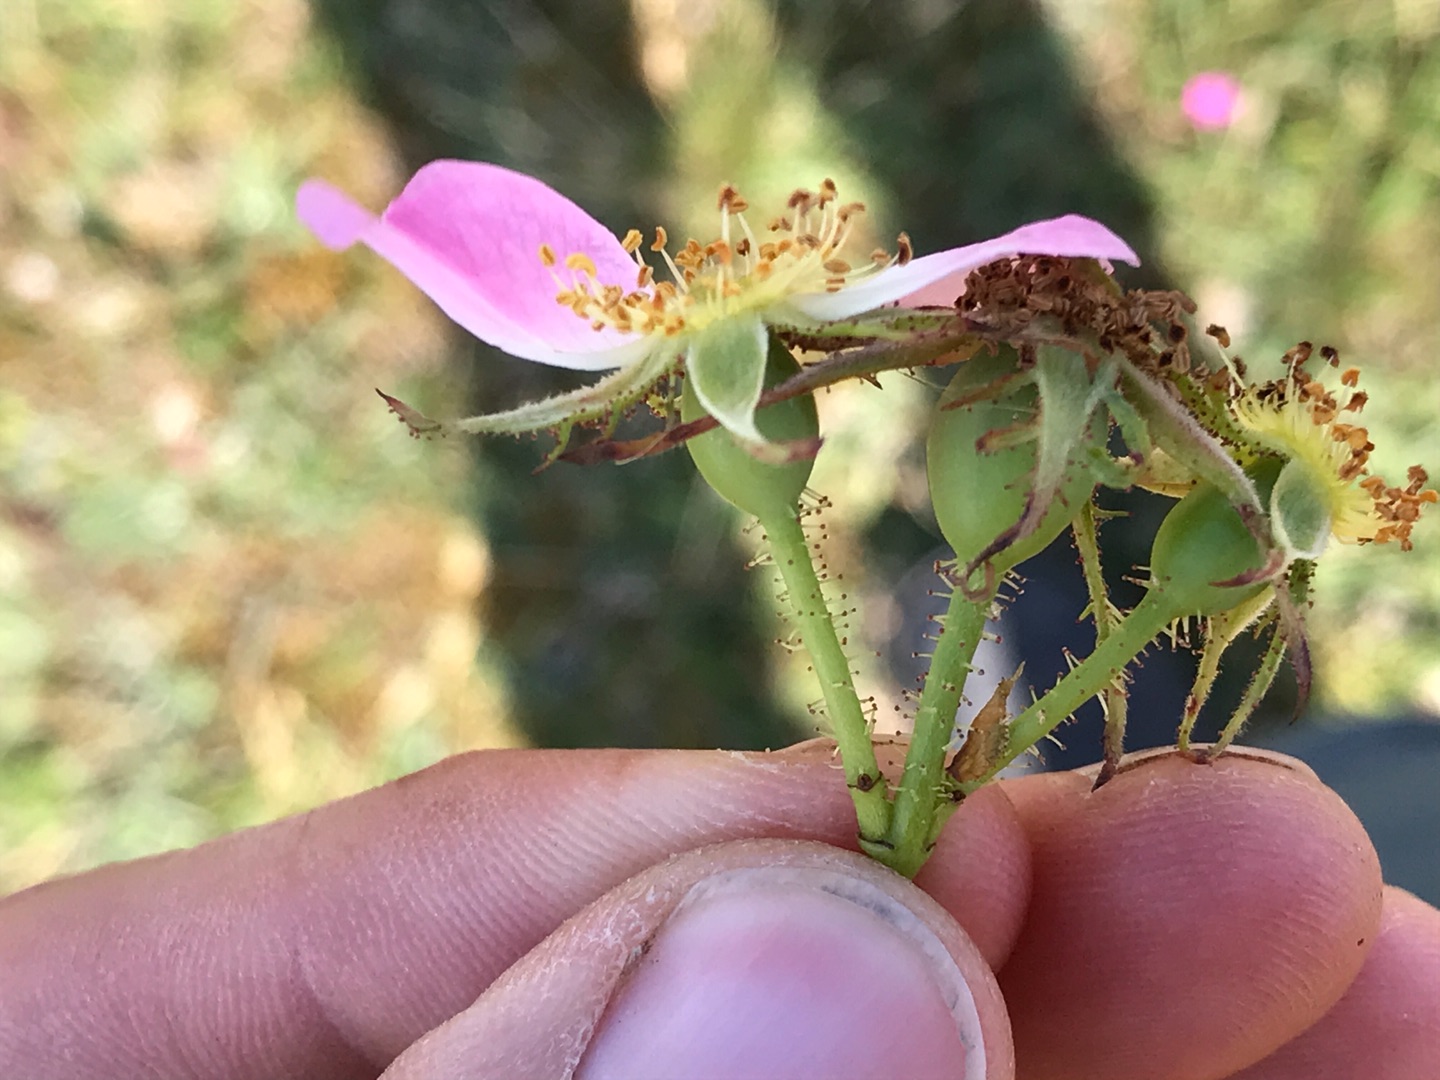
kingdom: Plantae
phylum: Tracheophyta
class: Magnoliopsida
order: Rosales
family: Rosaceae
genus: Rosa
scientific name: Rosa rubiginosa
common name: Æble-rose
